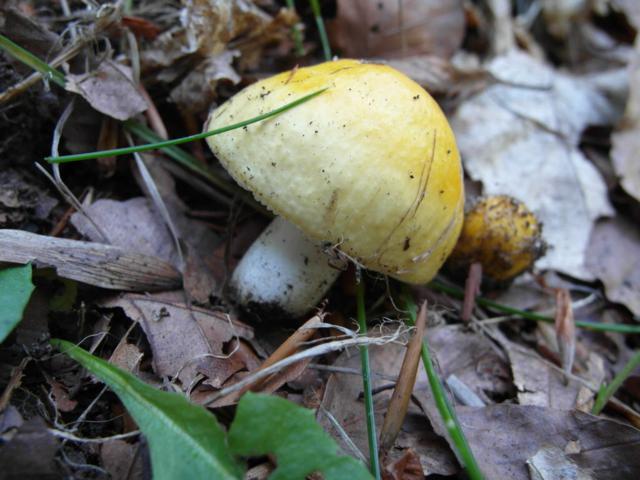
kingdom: Fungi
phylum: Basidiomycota
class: Agaricomycetes
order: Russulales
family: Russulaceae
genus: Russula
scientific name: Russula solaris
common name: sol-skørhat
